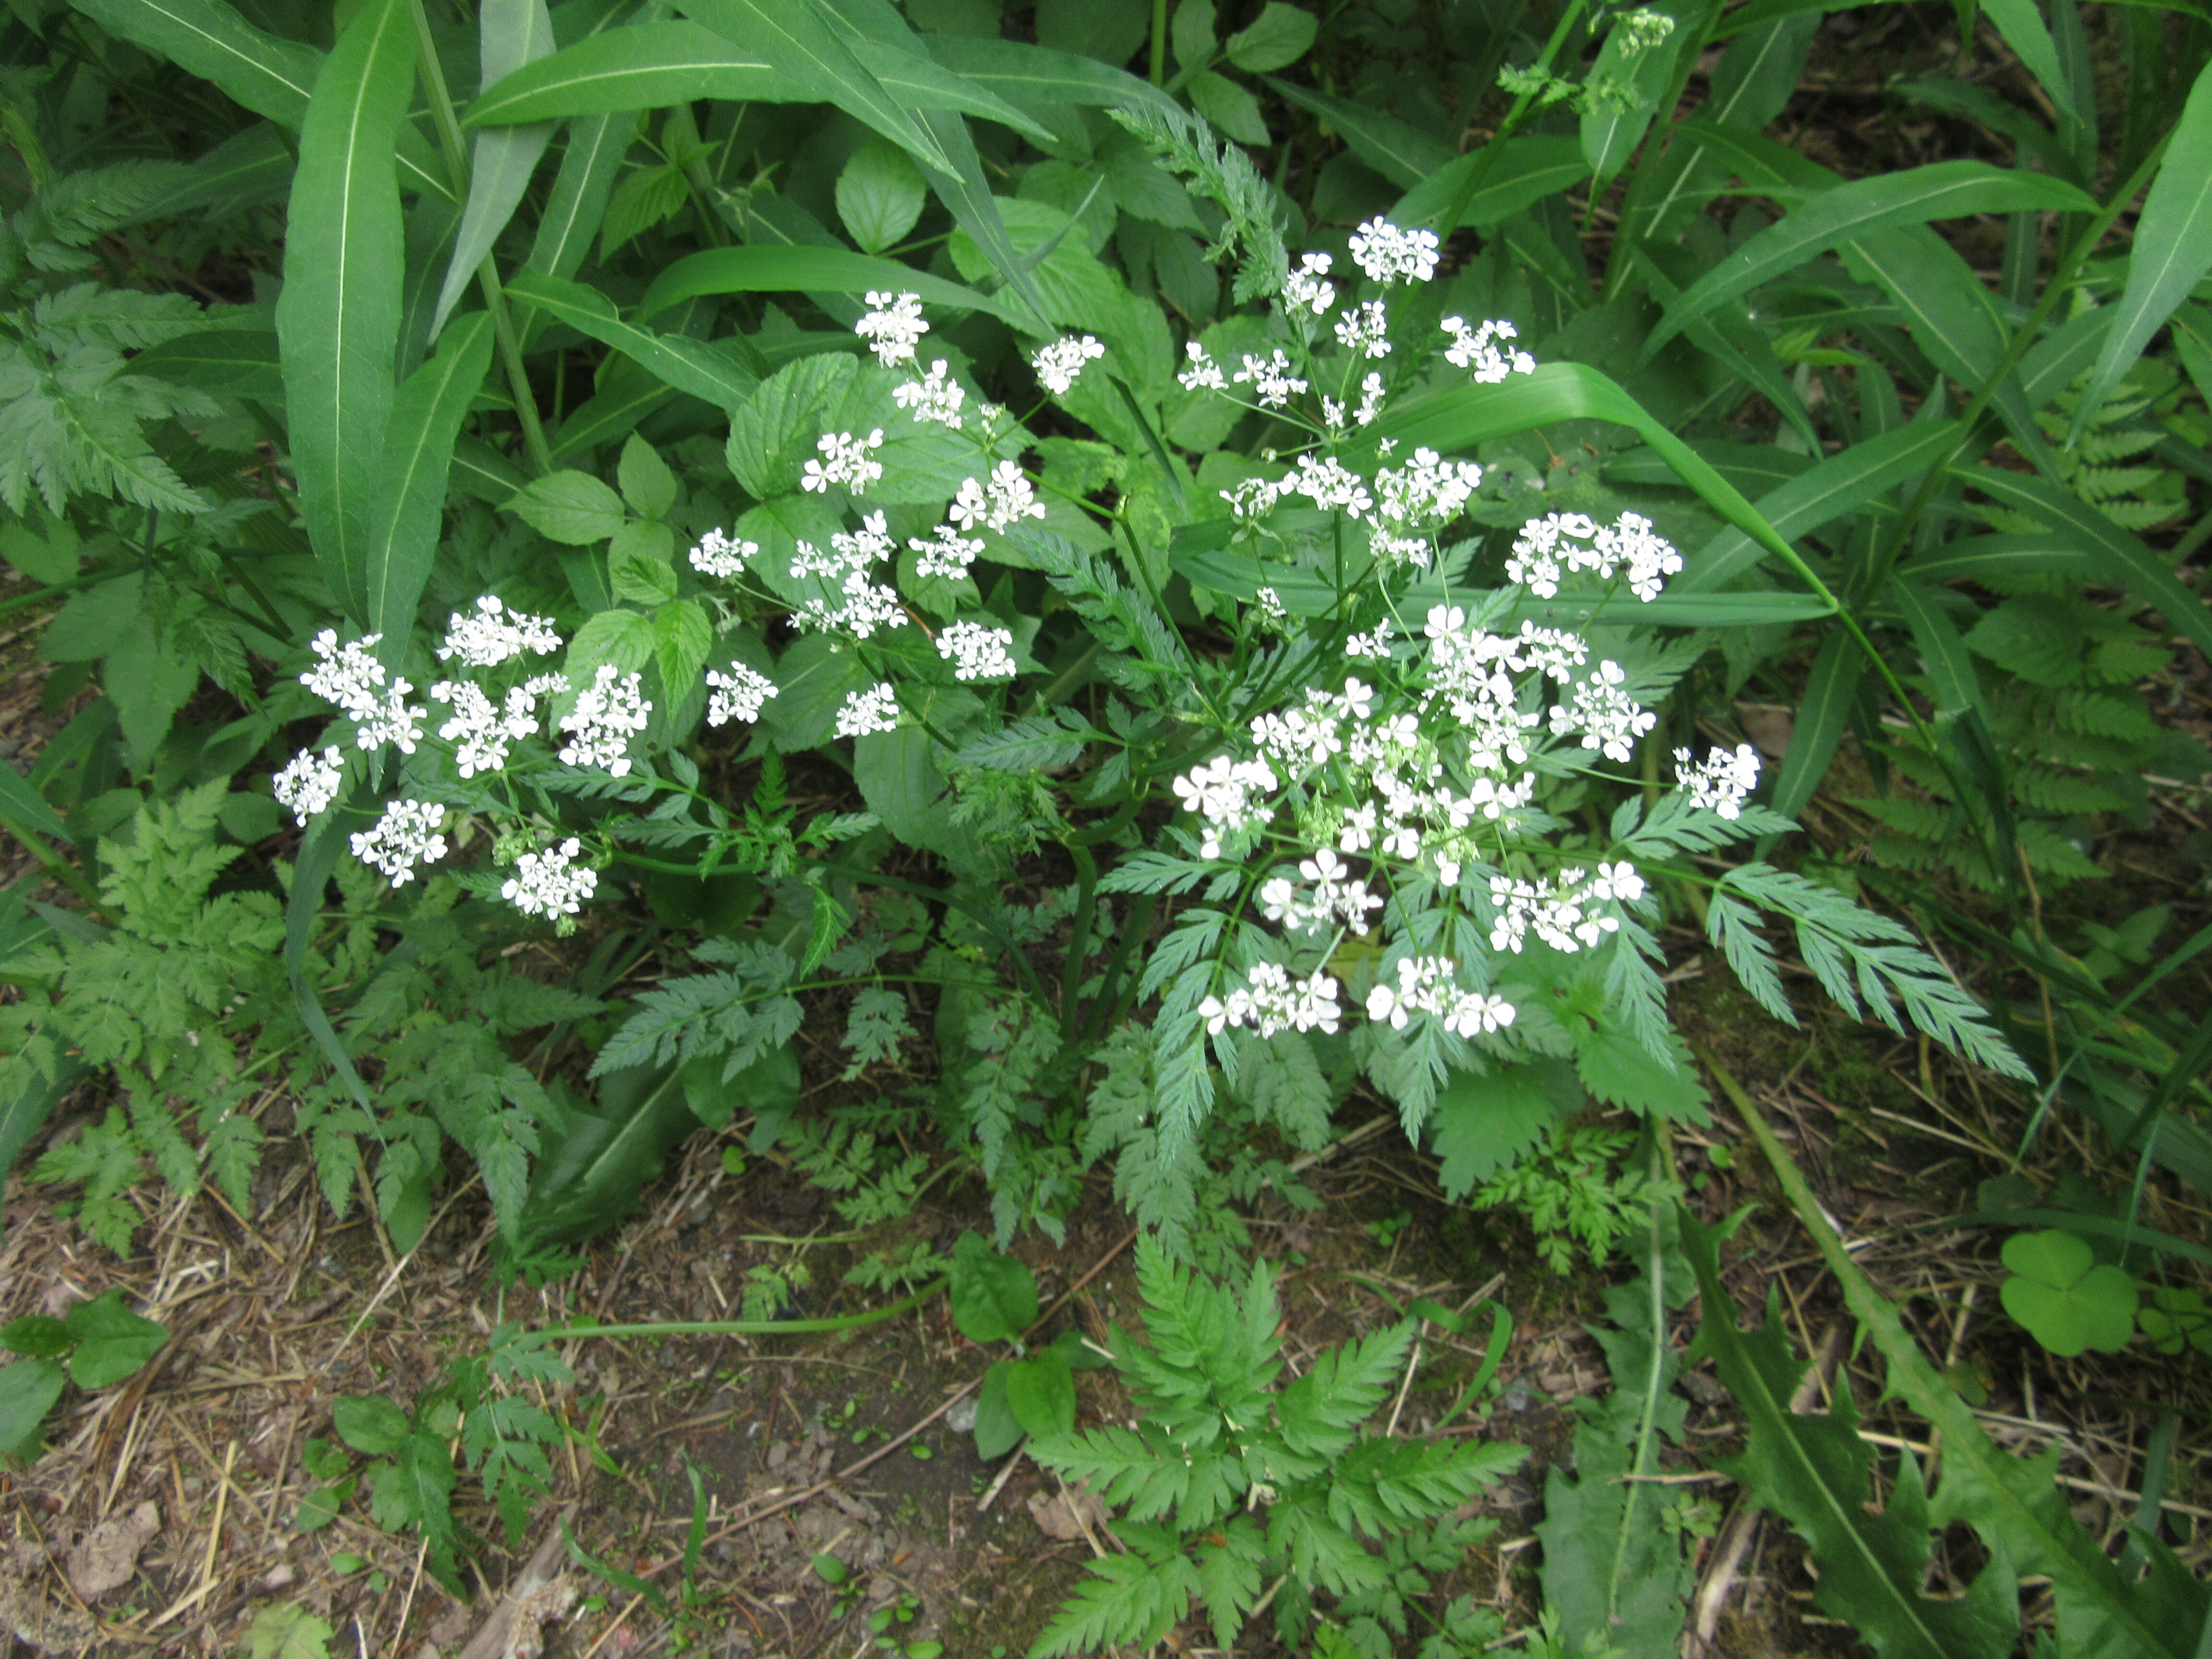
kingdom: Plantae
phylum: Tracheophyta
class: Magnoliopsida
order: Apiales
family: Apiaceae
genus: Anthriscus
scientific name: Anthriscus sylvestris
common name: Cow parsley
